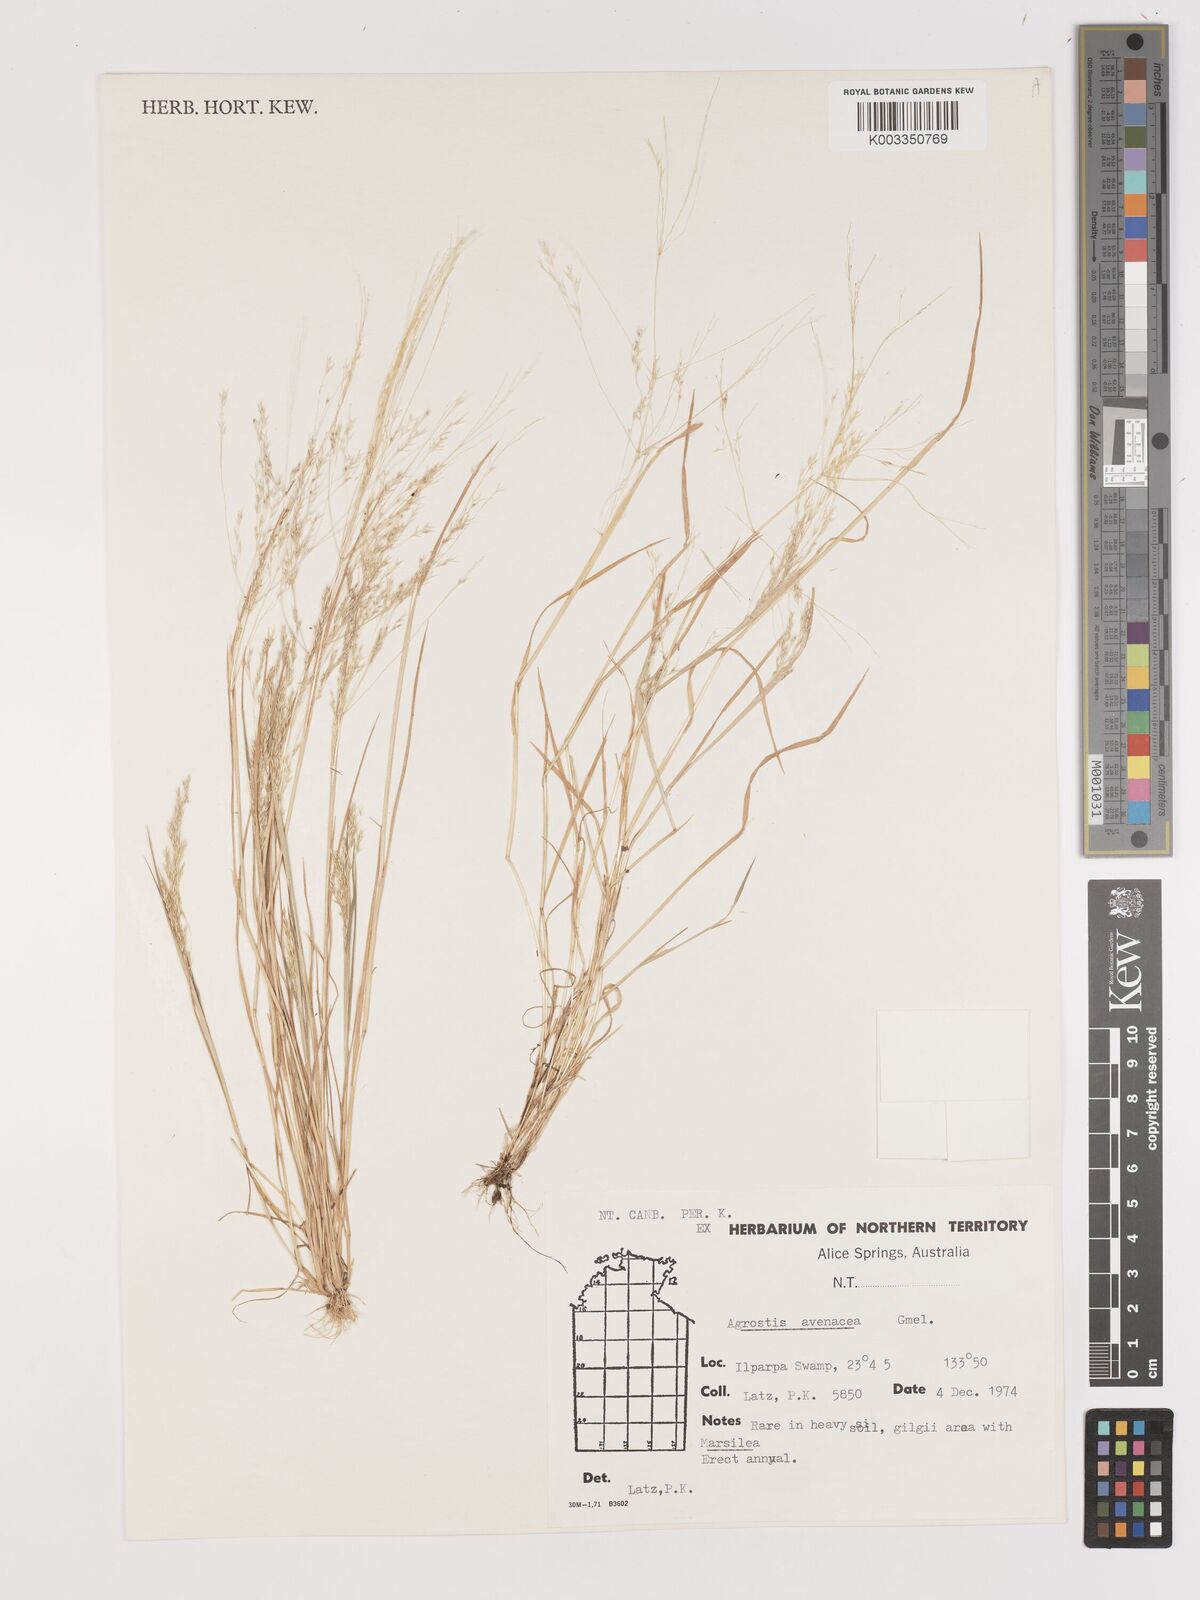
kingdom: Plantae
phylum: Tracheophyta
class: Liliopsida
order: Poales
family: Poaceae
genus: Lachnagrostis
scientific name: Lachnagrostis filiformis
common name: Bentgrass
